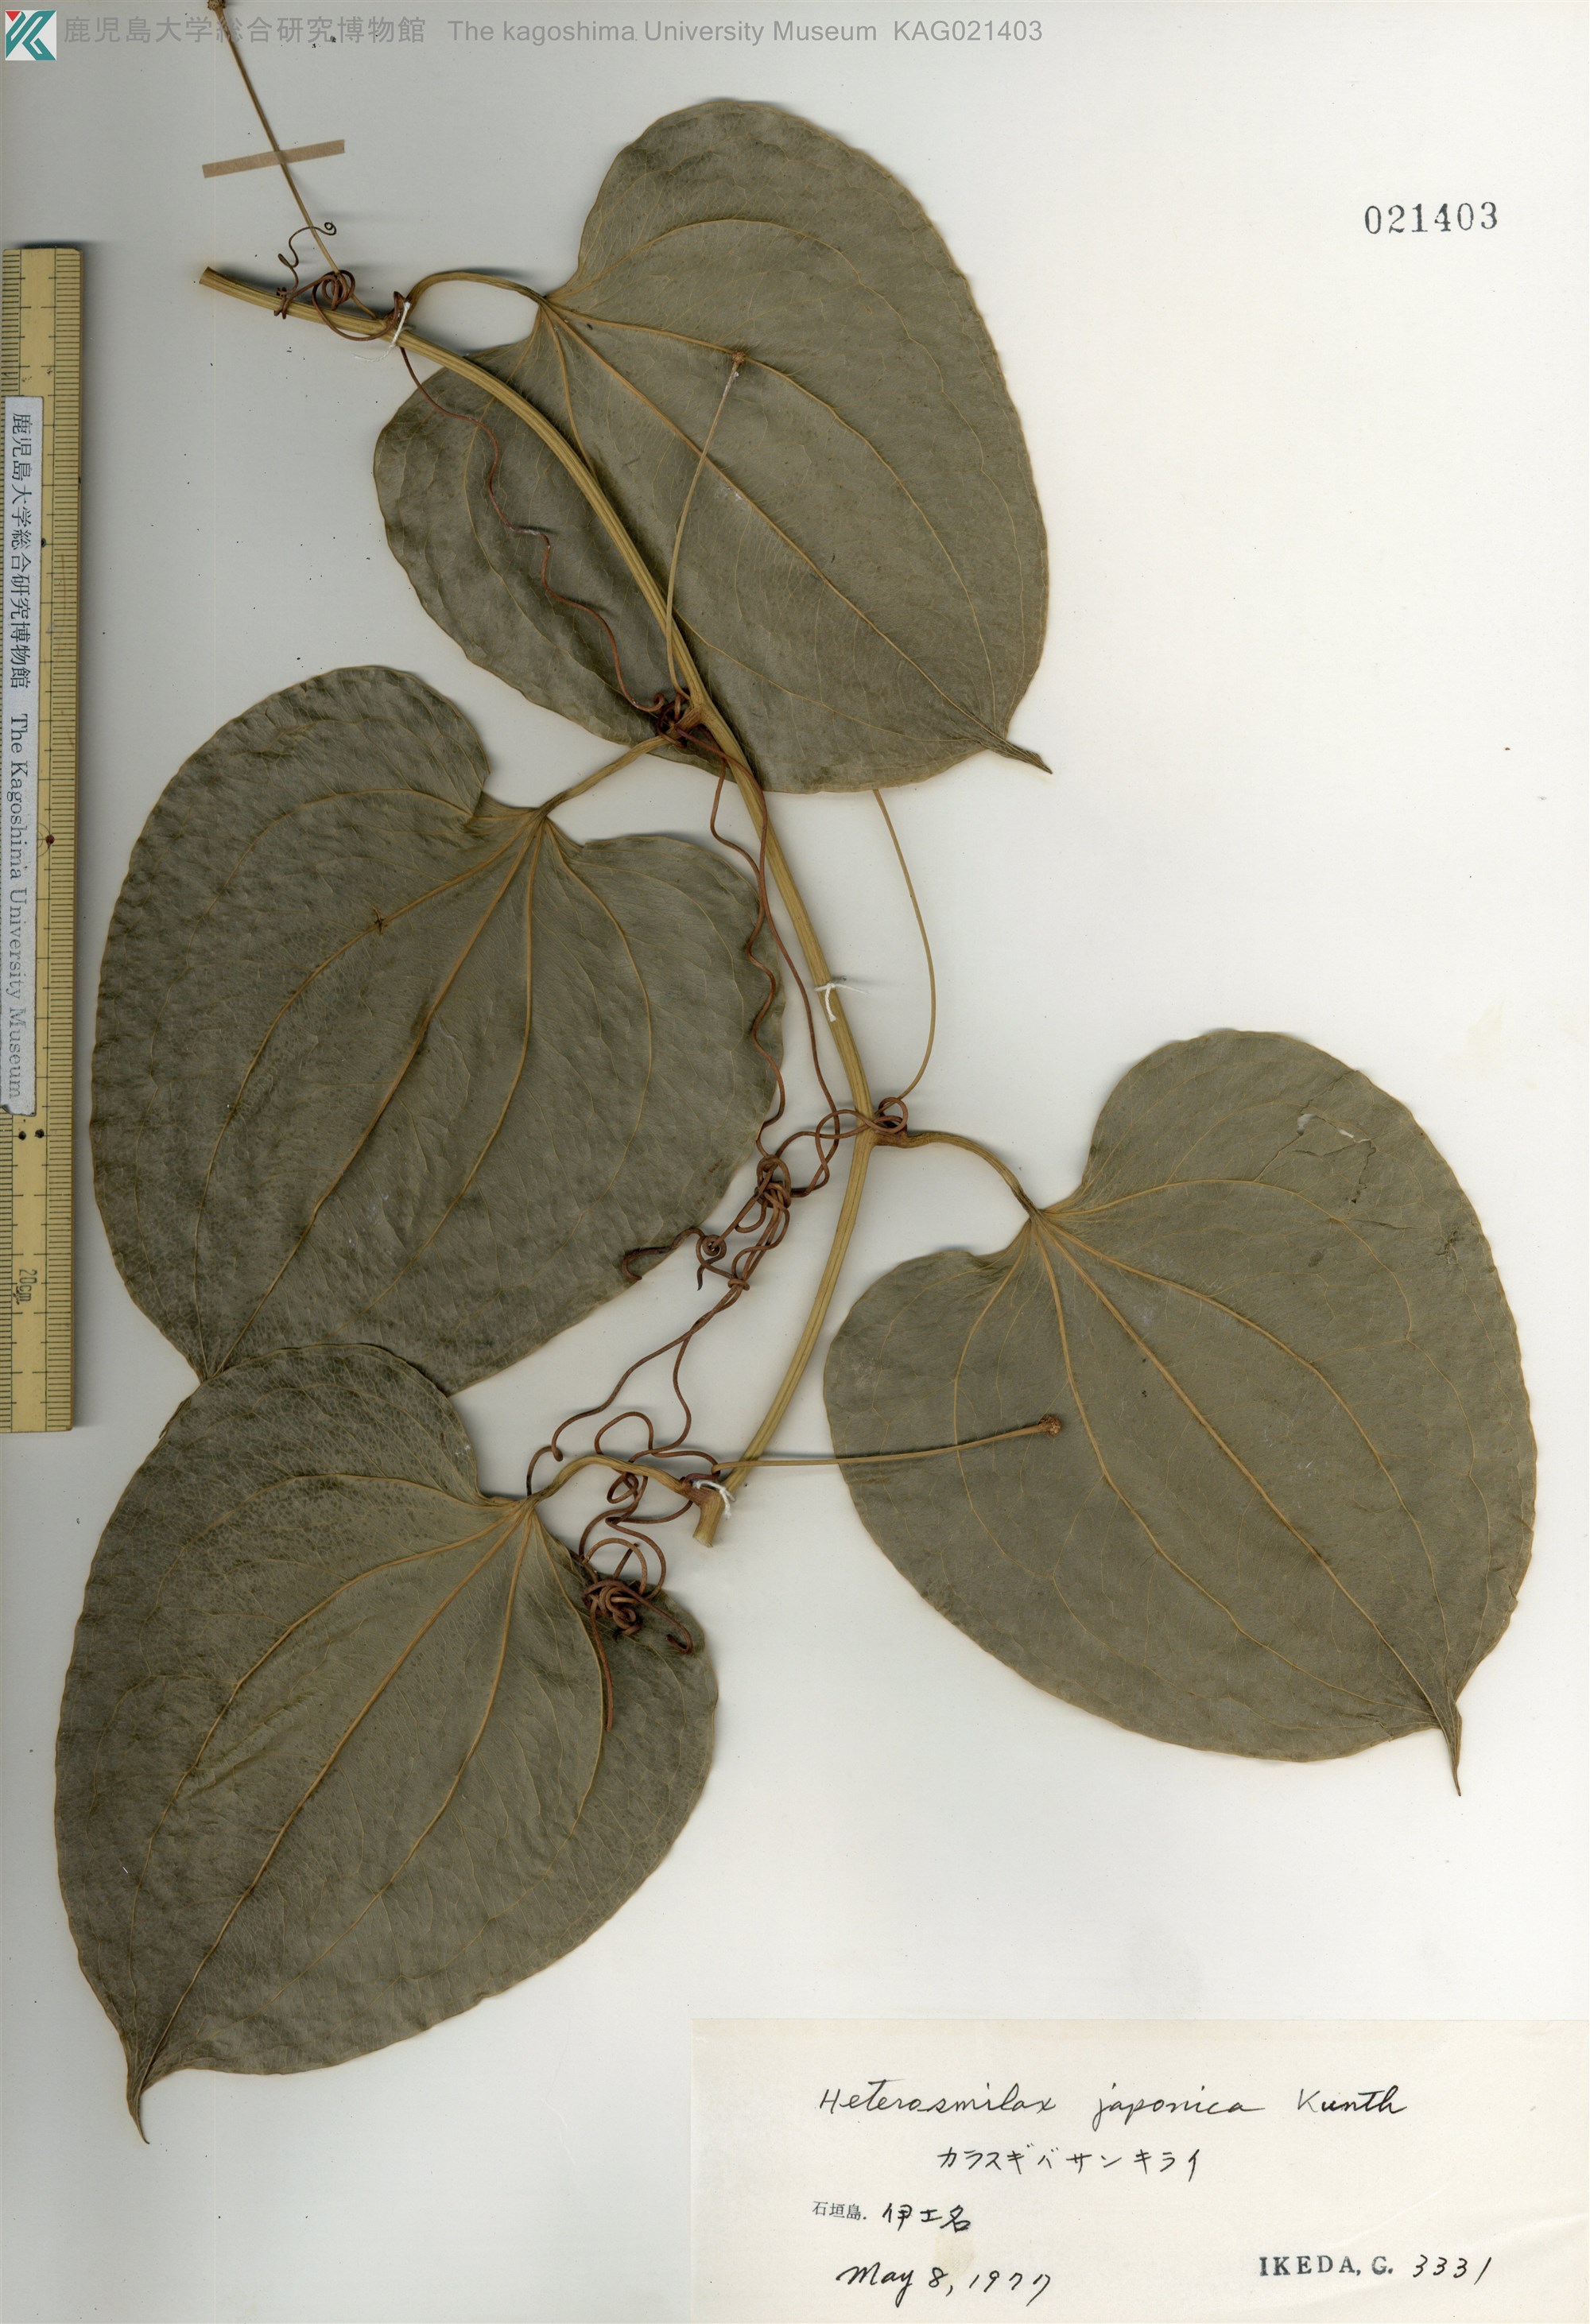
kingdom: Plantae
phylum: Tracheophyta
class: Liliopsida
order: Liliales
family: Smilacaceae
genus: Smilax
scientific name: Smilax insularis
